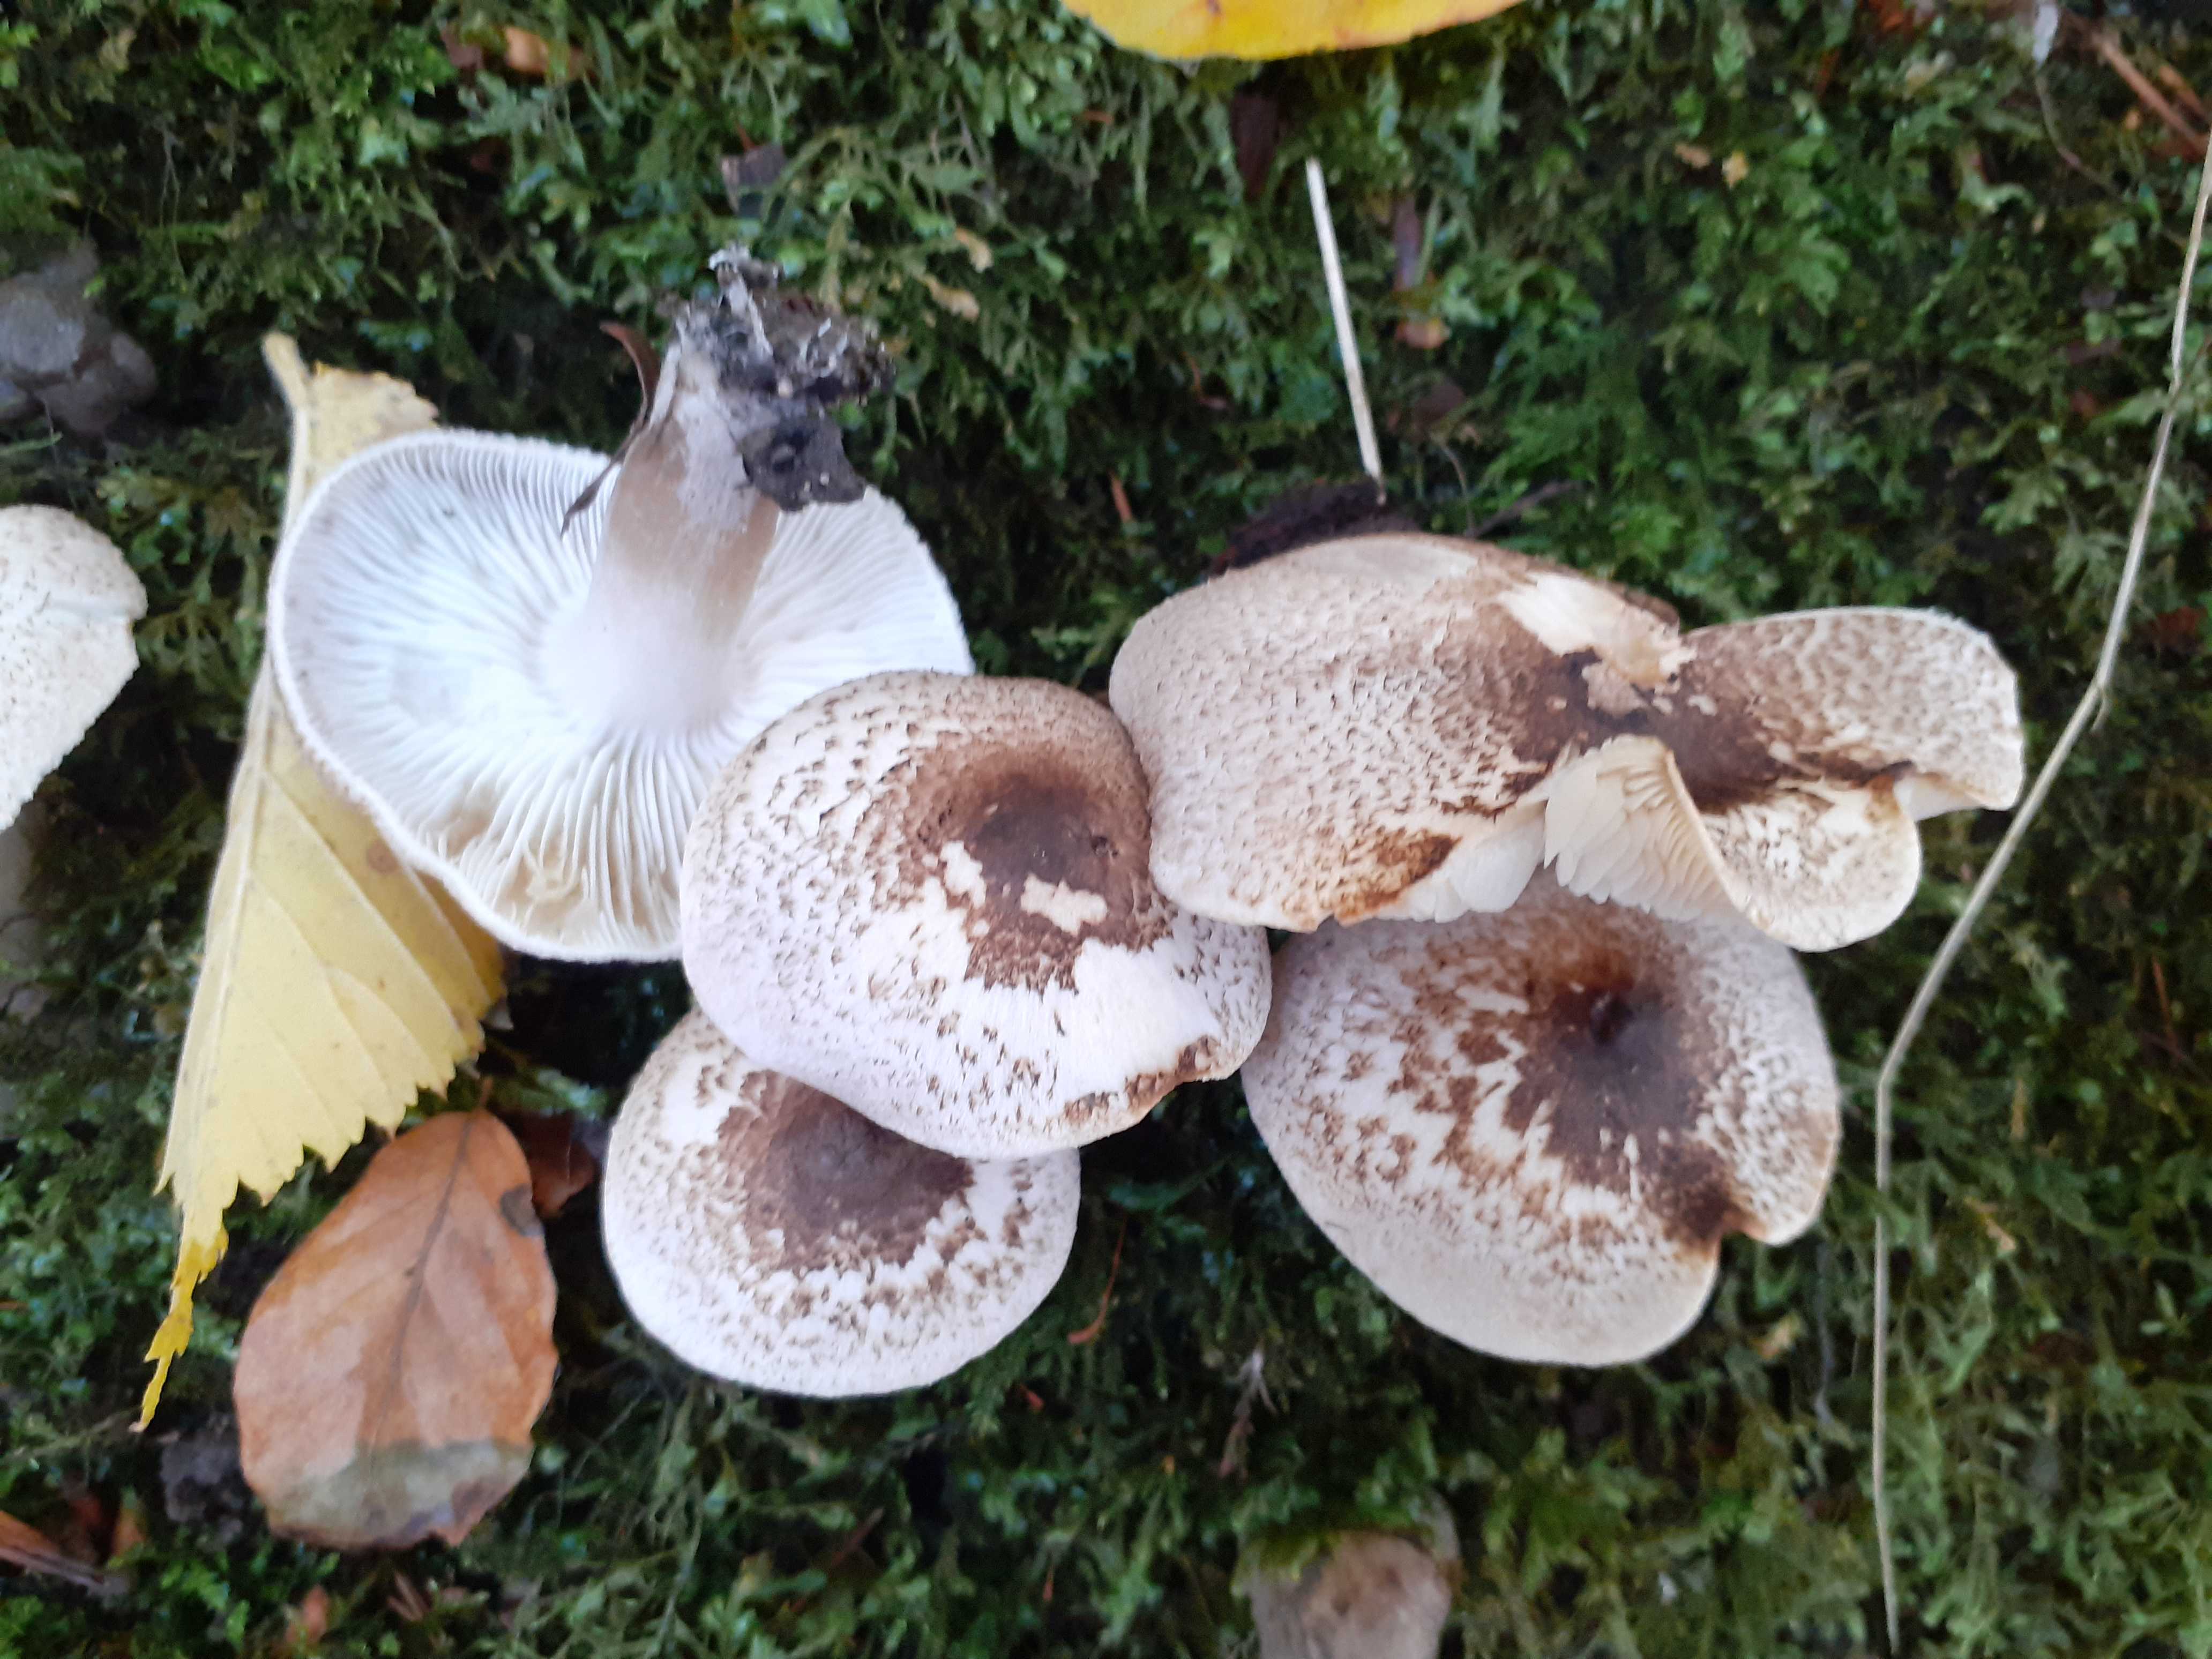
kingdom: Fungi
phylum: Basidiomycota
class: Agaricomycetes
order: Agaricales
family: Tricholomataceae
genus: Tricholoma
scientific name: Tricholoma scalpturatum
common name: gulplettet ridderhat
